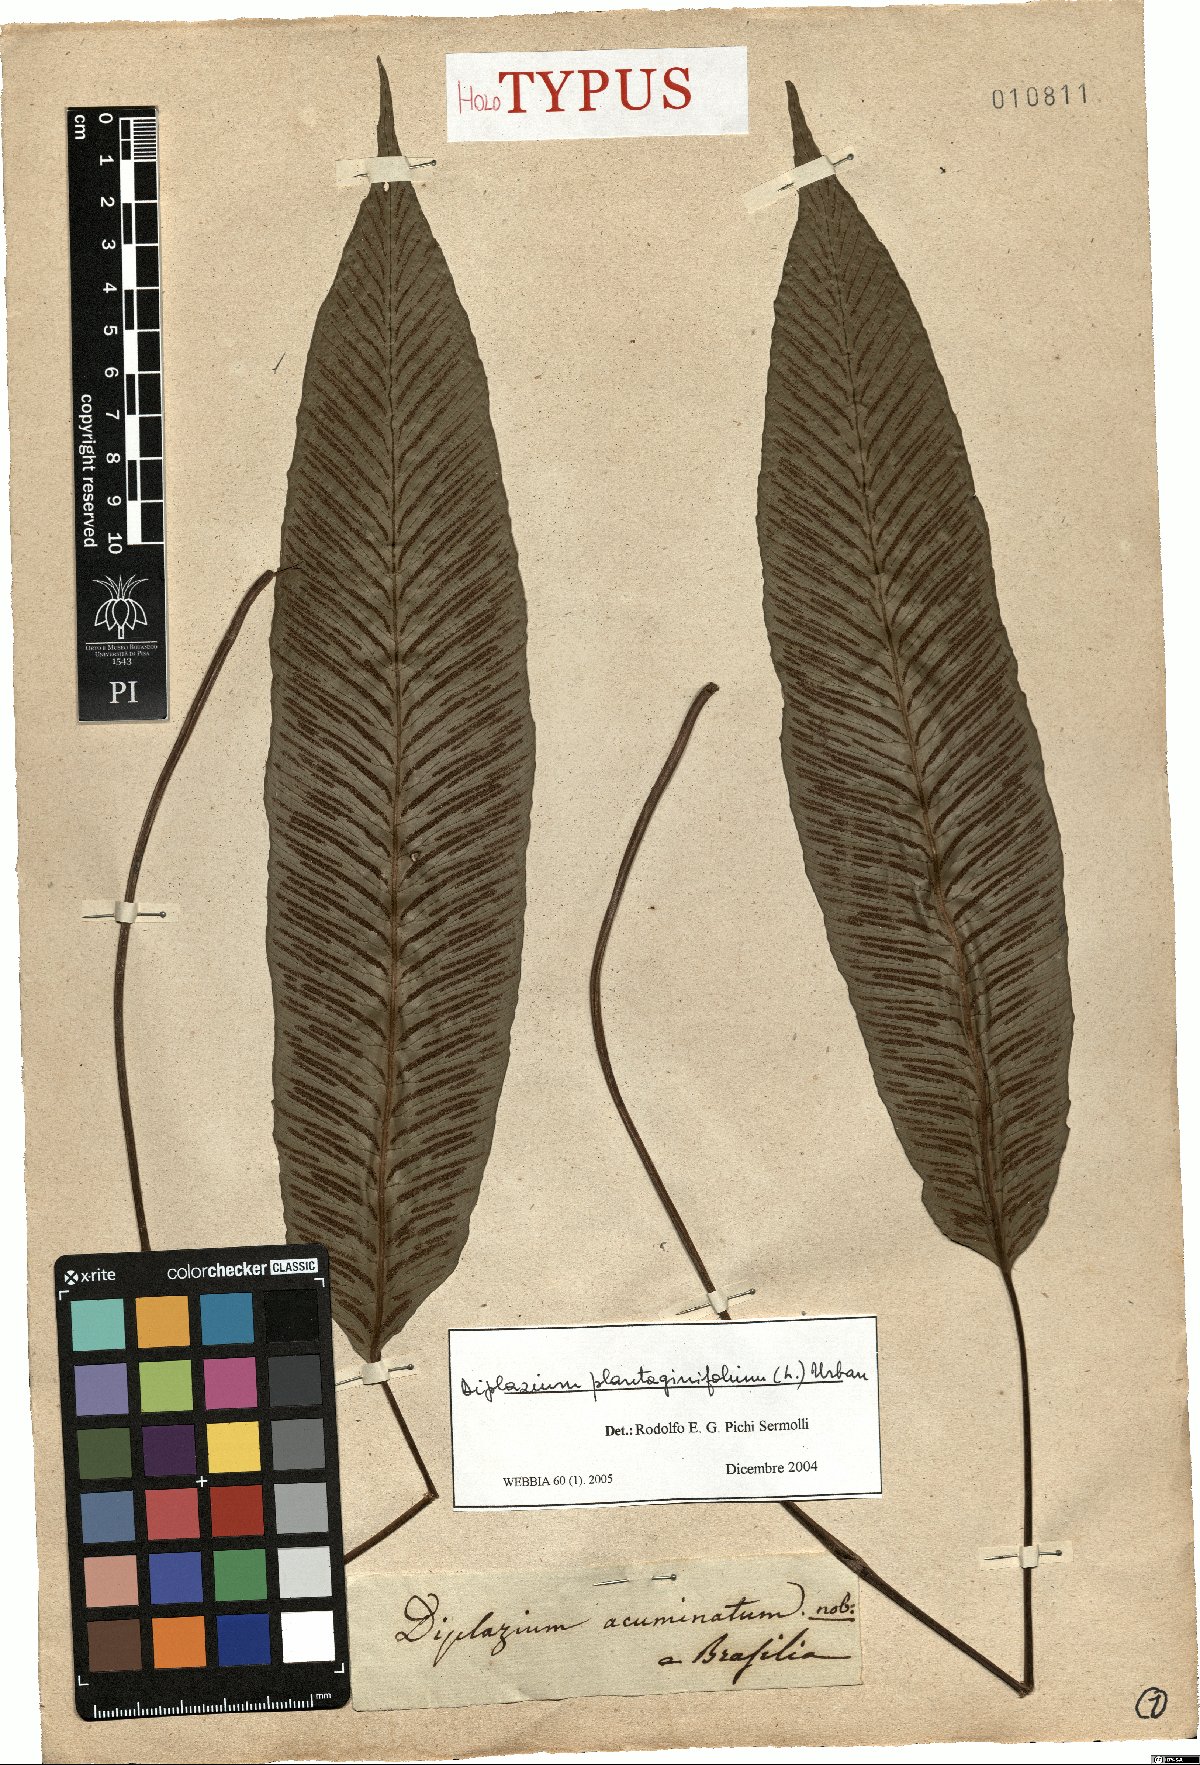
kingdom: Plantae
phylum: Tracheophyta
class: Polypodiopsida
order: Polypodiales
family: Athyriaceae
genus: Diplazium
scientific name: Diplazium plantaginifolium
